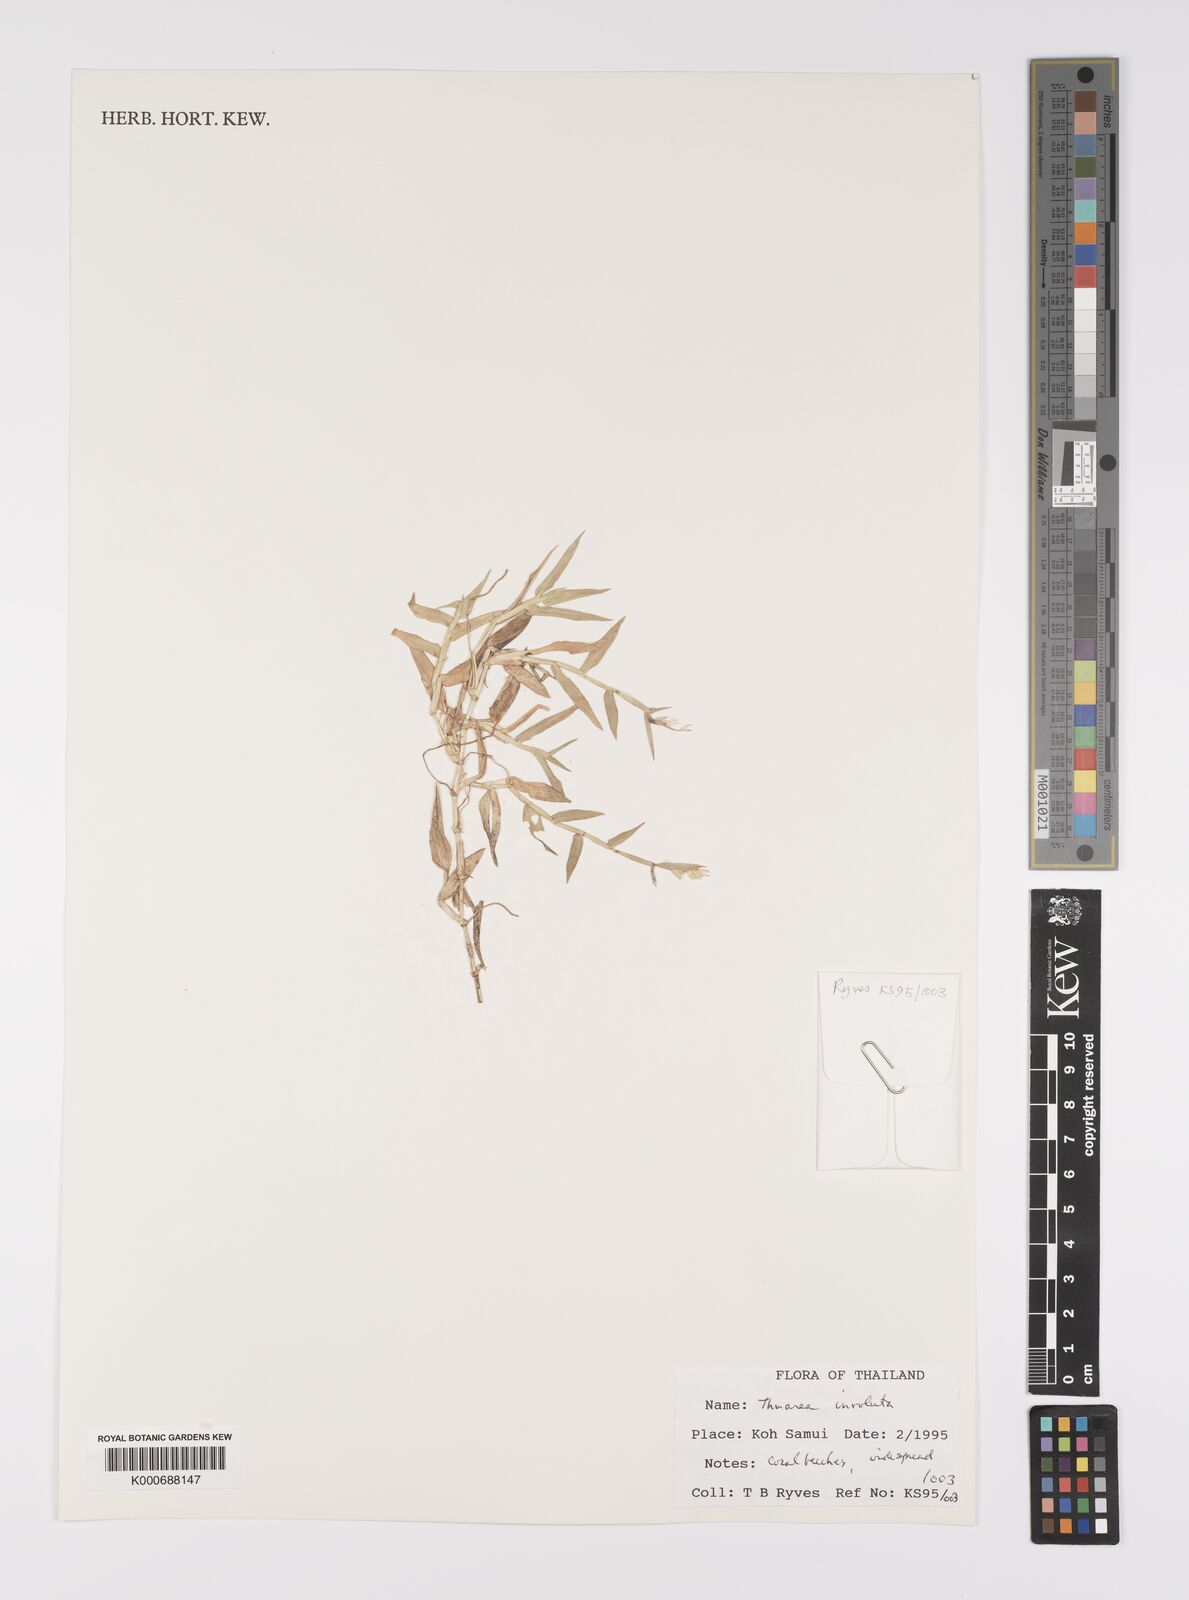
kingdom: Plantae
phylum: Tracheophyta
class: Liliopsida
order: Poales
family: Poaceae
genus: Thuarea
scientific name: Thuarea involuta
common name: Tropical beach grass
